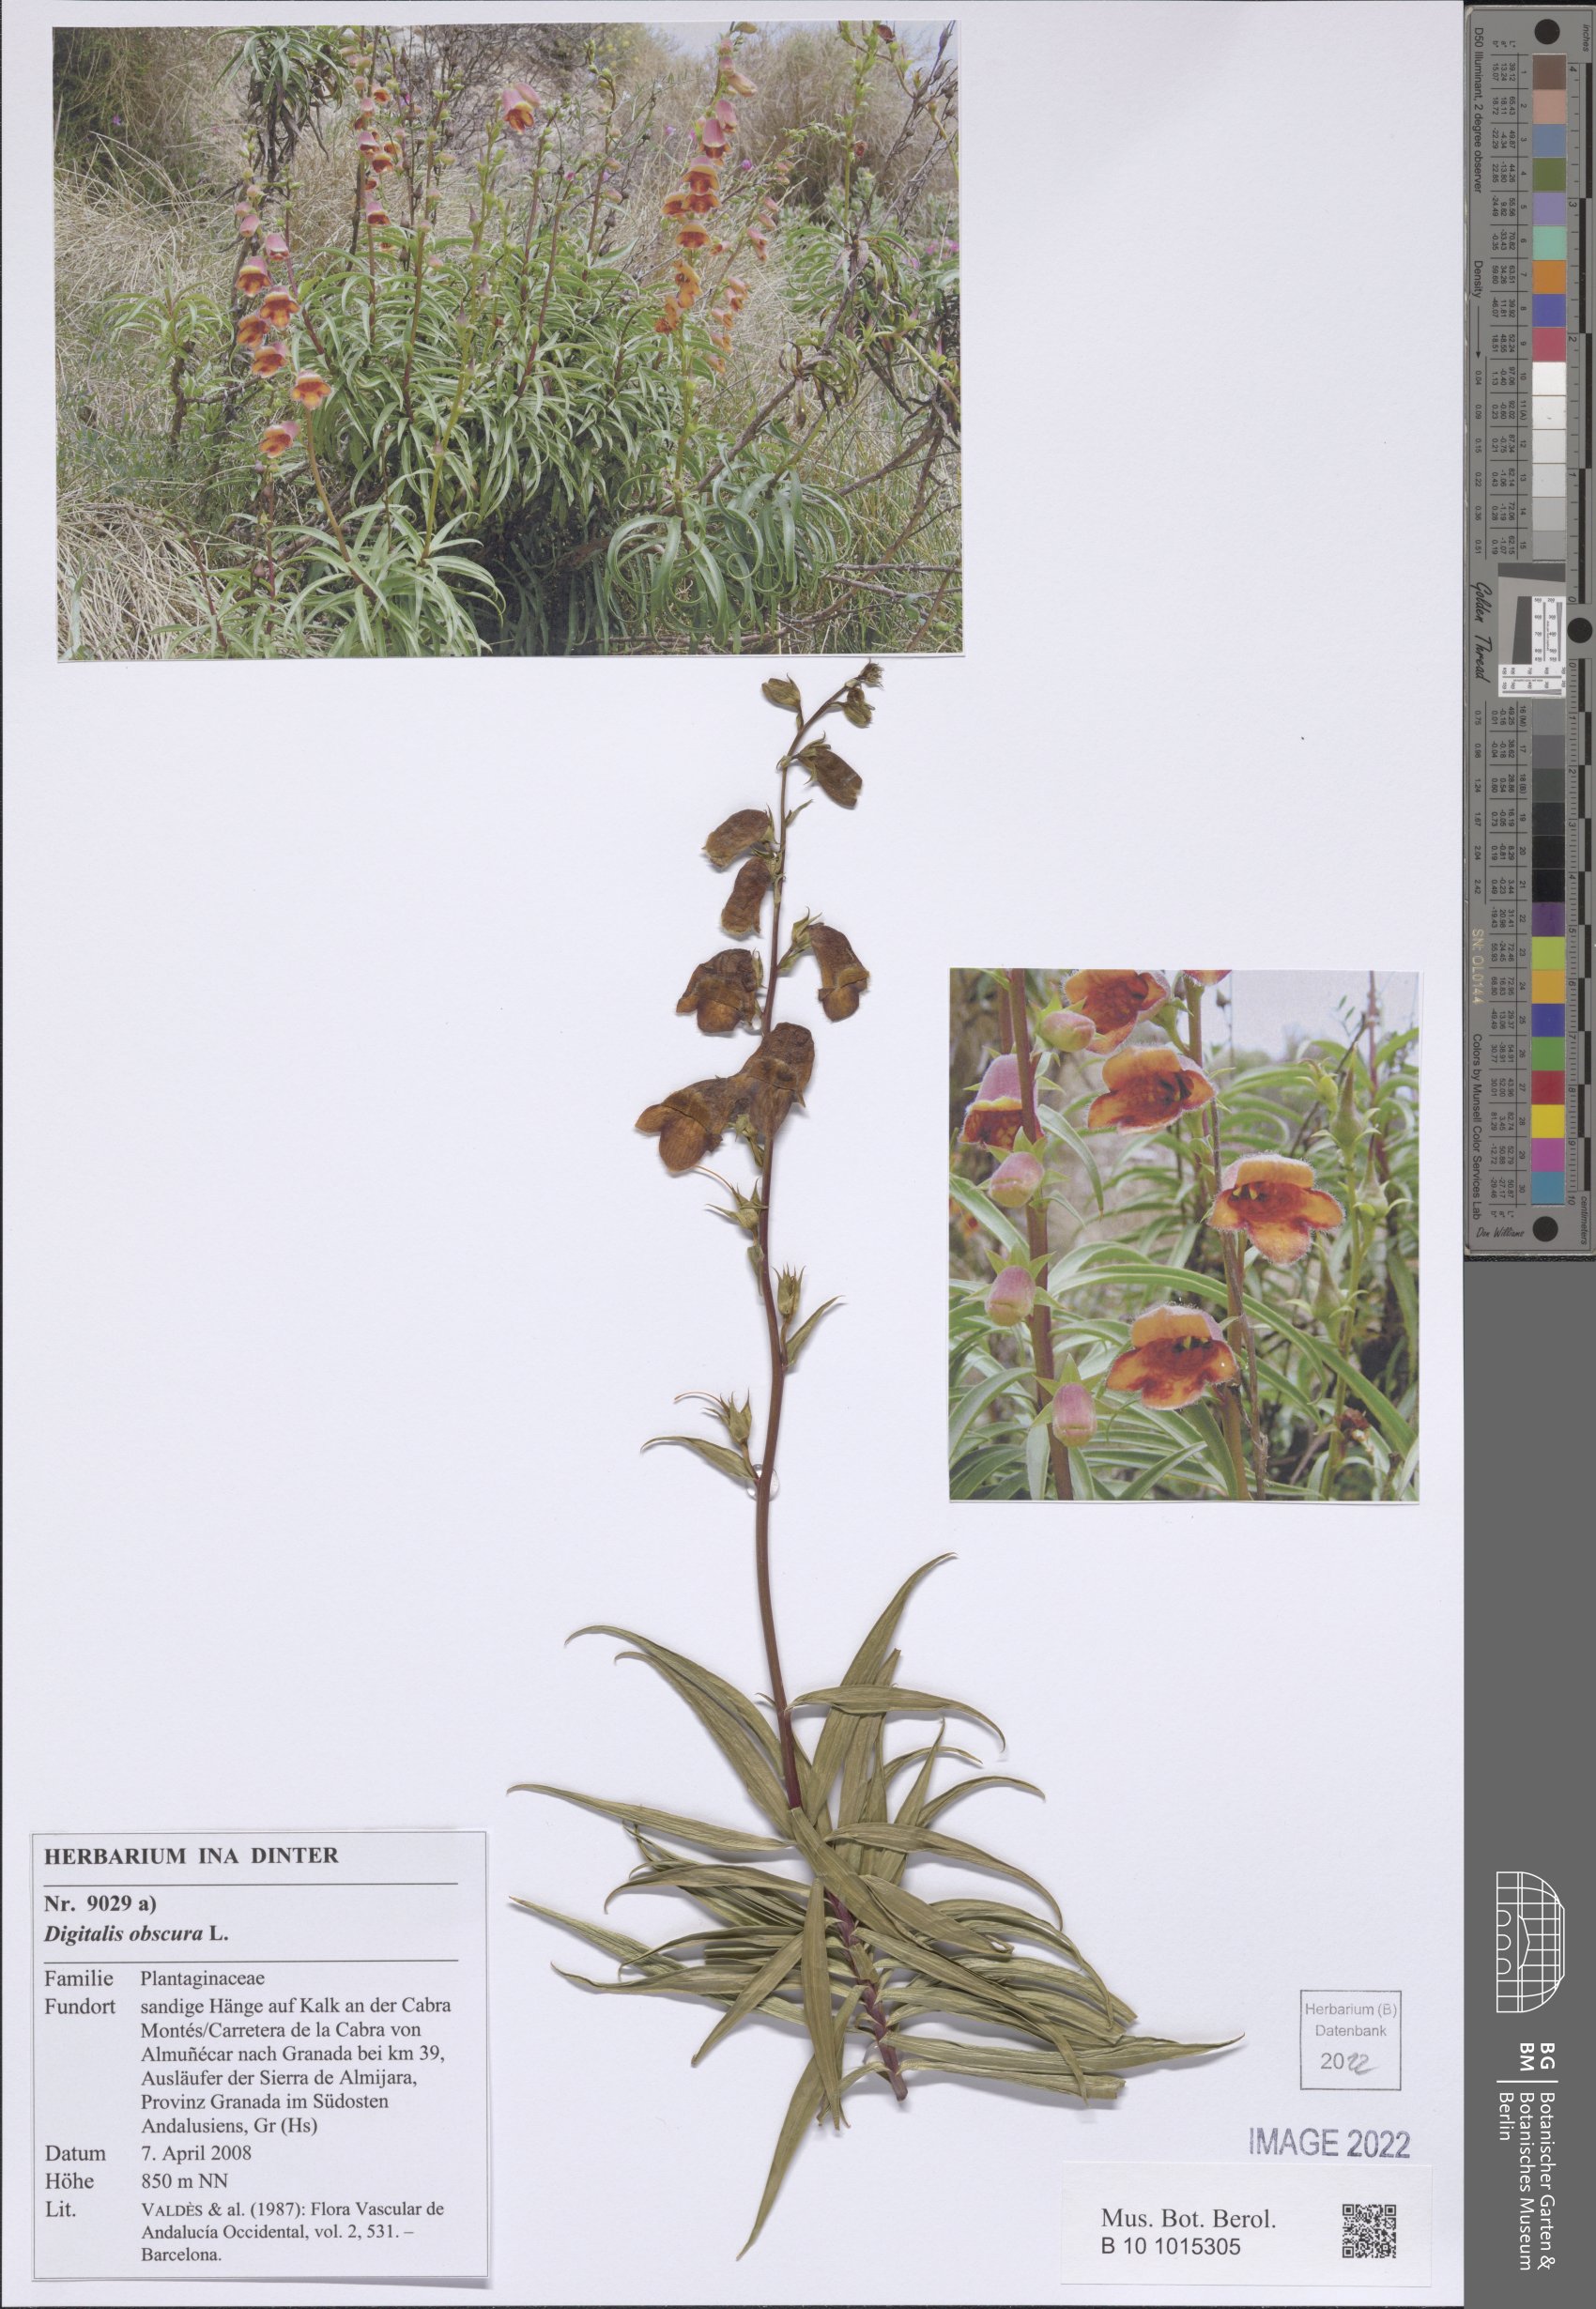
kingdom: Plantae
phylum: Tracheophyta
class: Magnoliopsida
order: Lamiales
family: Plantaginaceae
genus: Digitalis
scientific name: Digitalis obscura
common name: Willow-leaf foxglove
